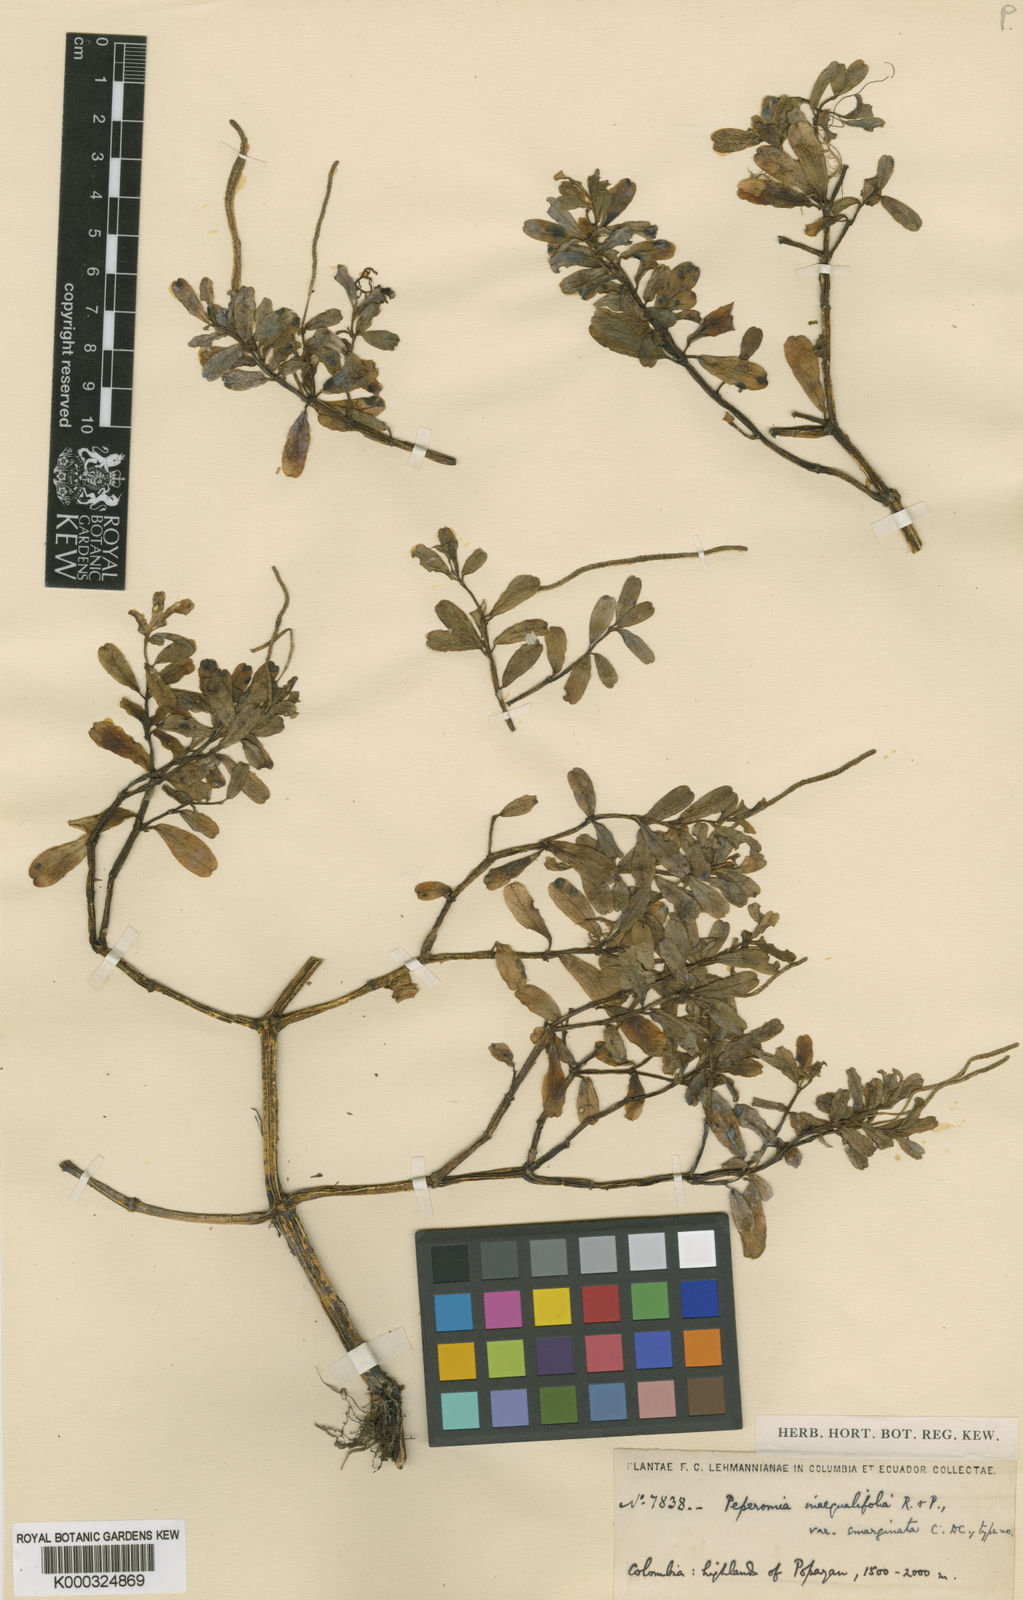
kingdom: Plantae
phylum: Tracheophyta
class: Magnoliopsida
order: Piperales
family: Piperaceae
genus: Peperomia
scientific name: Peperomia ilaloensis
